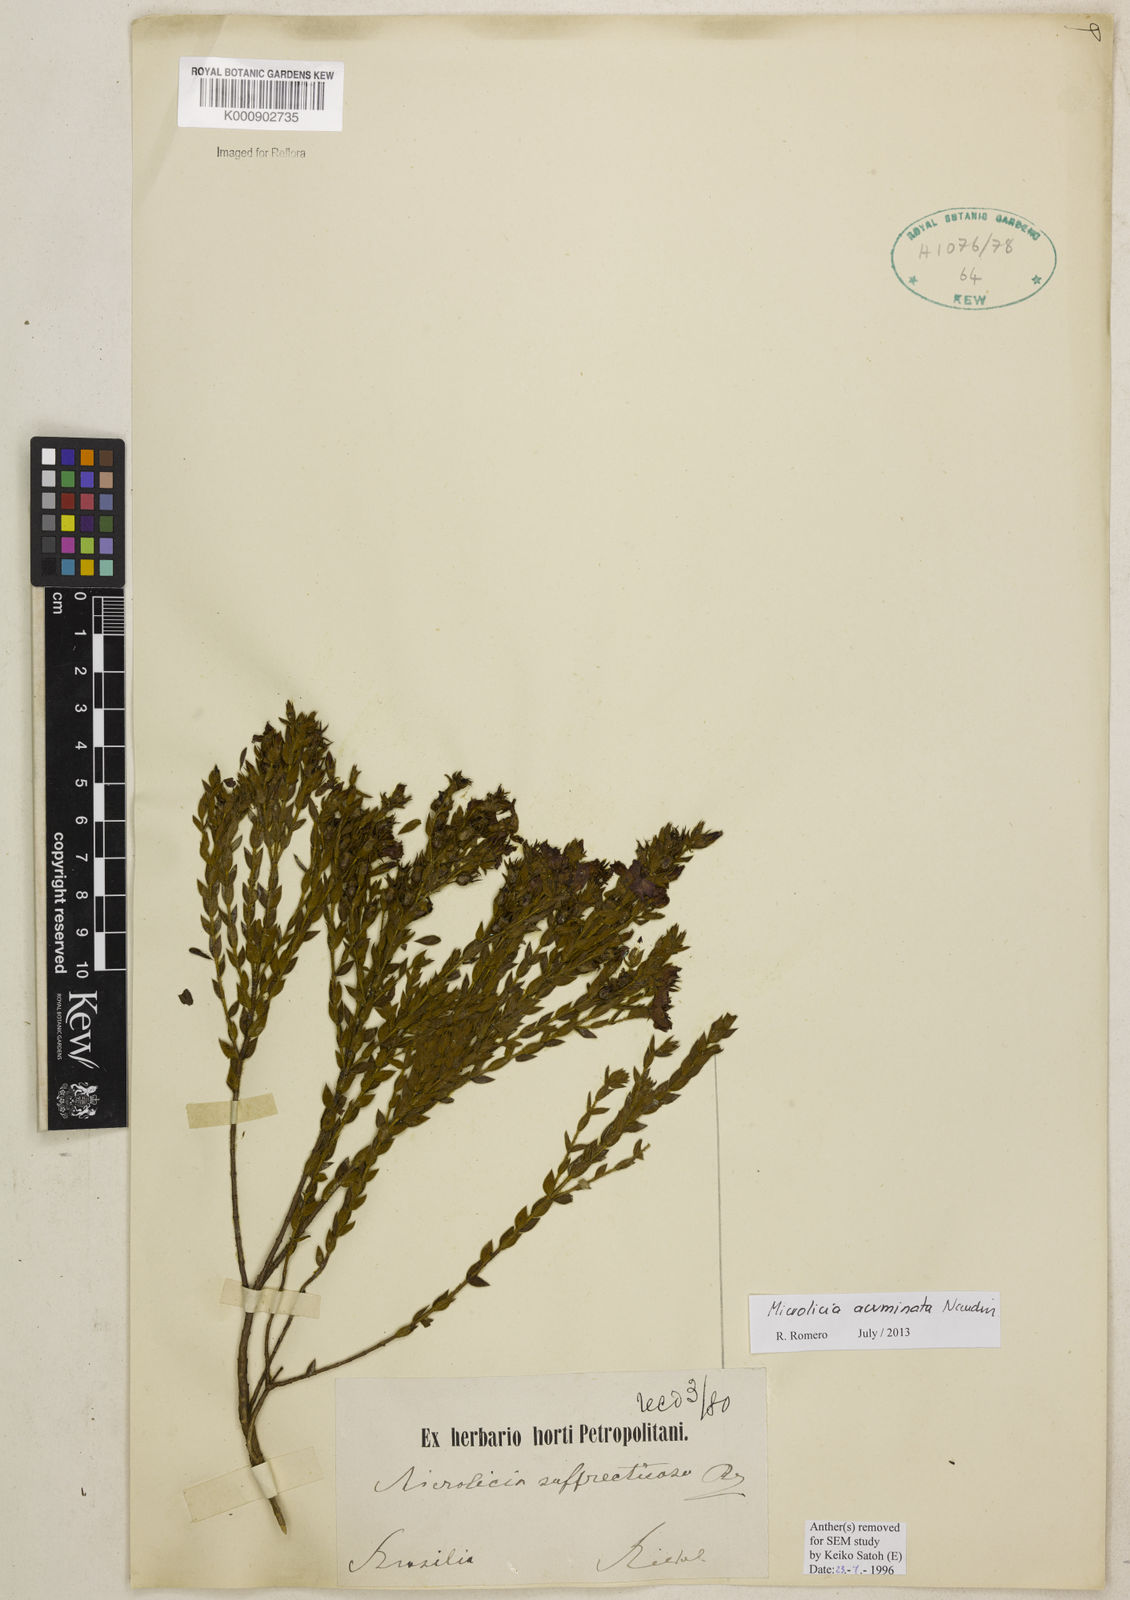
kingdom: Plantae
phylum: Tracheophyta
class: Magnoliopsida
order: Myrtales
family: Melastomataceae
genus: Microlicia
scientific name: Microlicia
